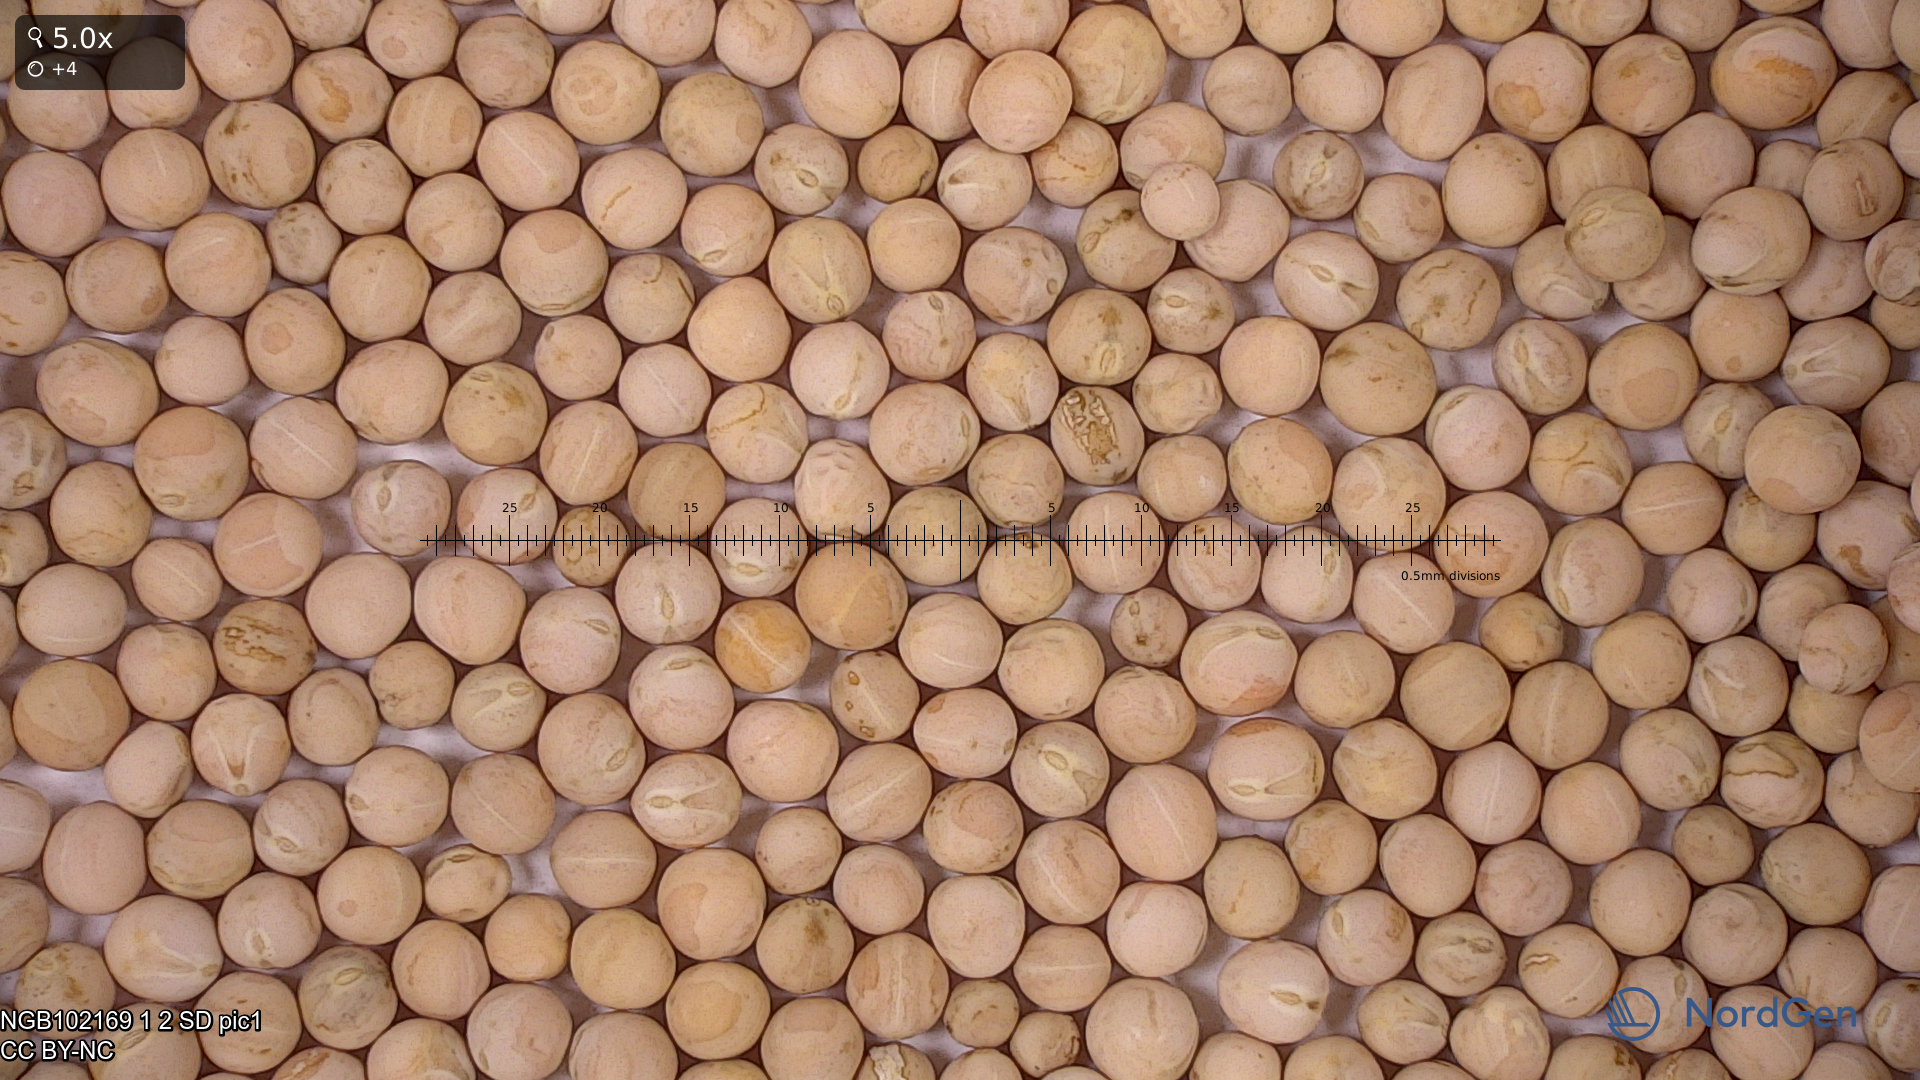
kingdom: Plantae
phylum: Tracheophyta
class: Magnoliopsida
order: Fabales
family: Fabaceae
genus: Lathyrus
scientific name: Lathyrus oleraceus
